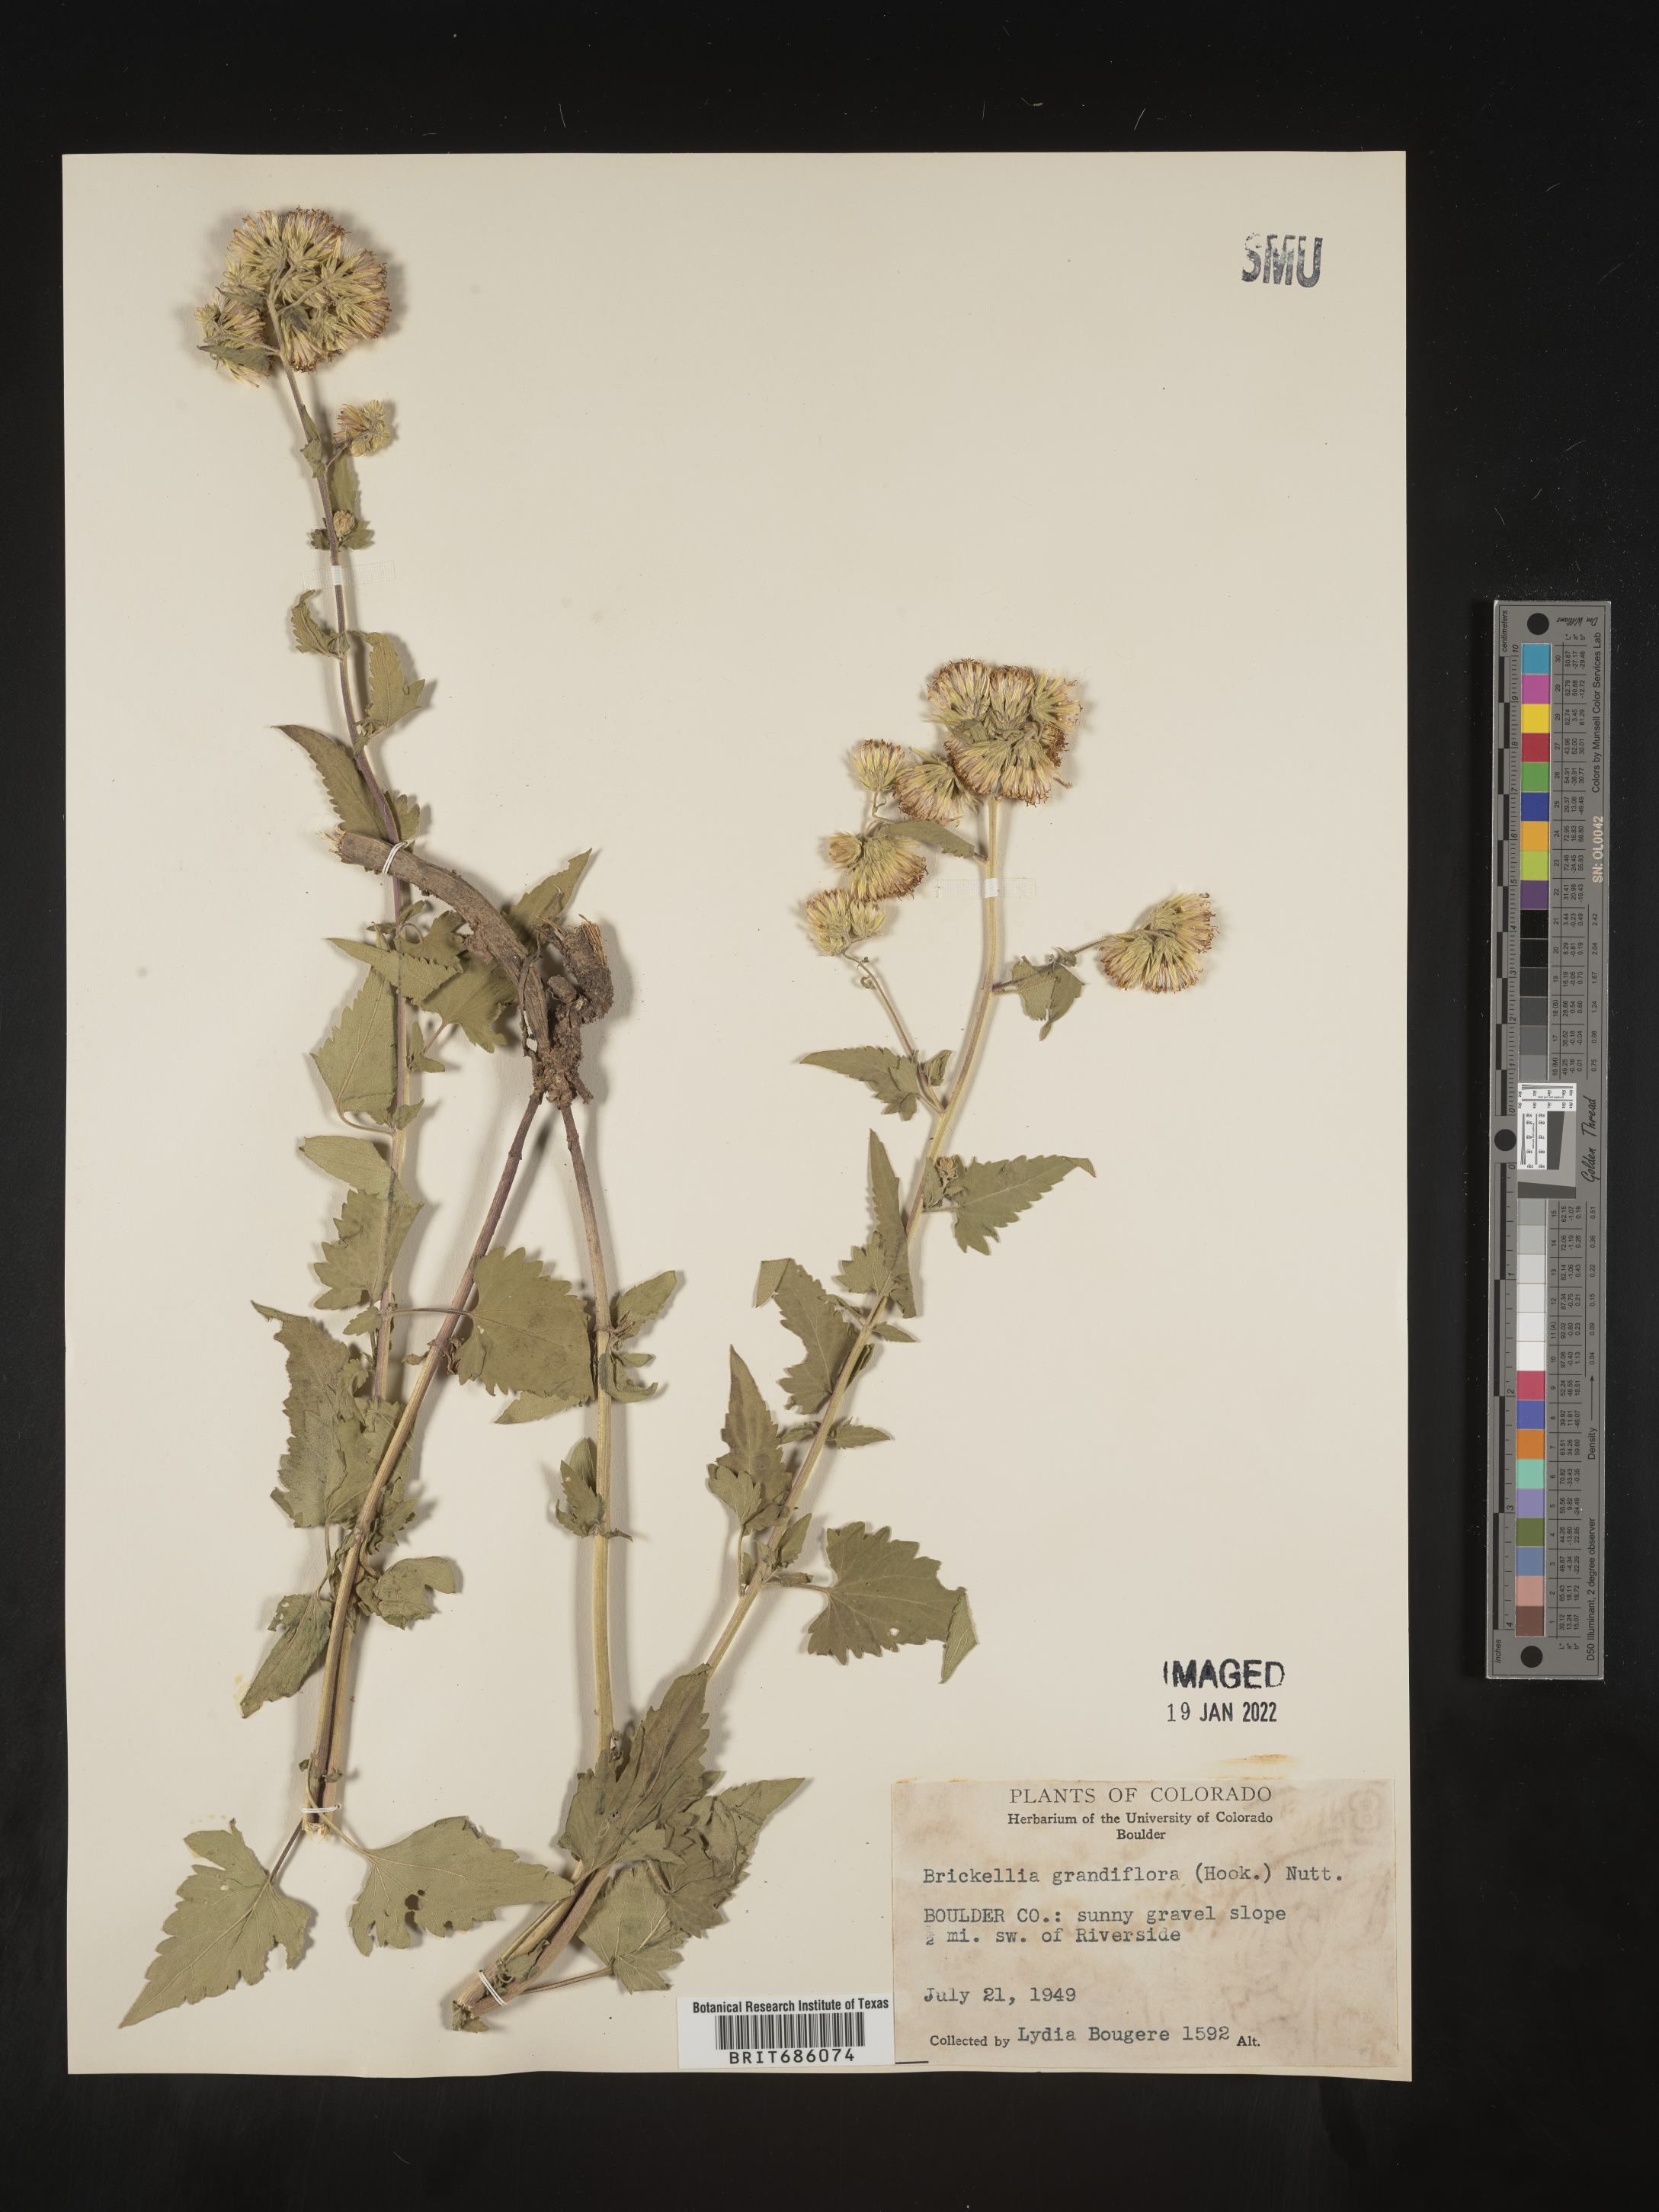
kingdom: Plantae
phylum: Tracheophyta
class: Magnoliopsida
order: Asterales
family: Asteraceae
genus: Brickellia
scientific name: Brickellia grandiflora
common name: Large-flowered brickellia
